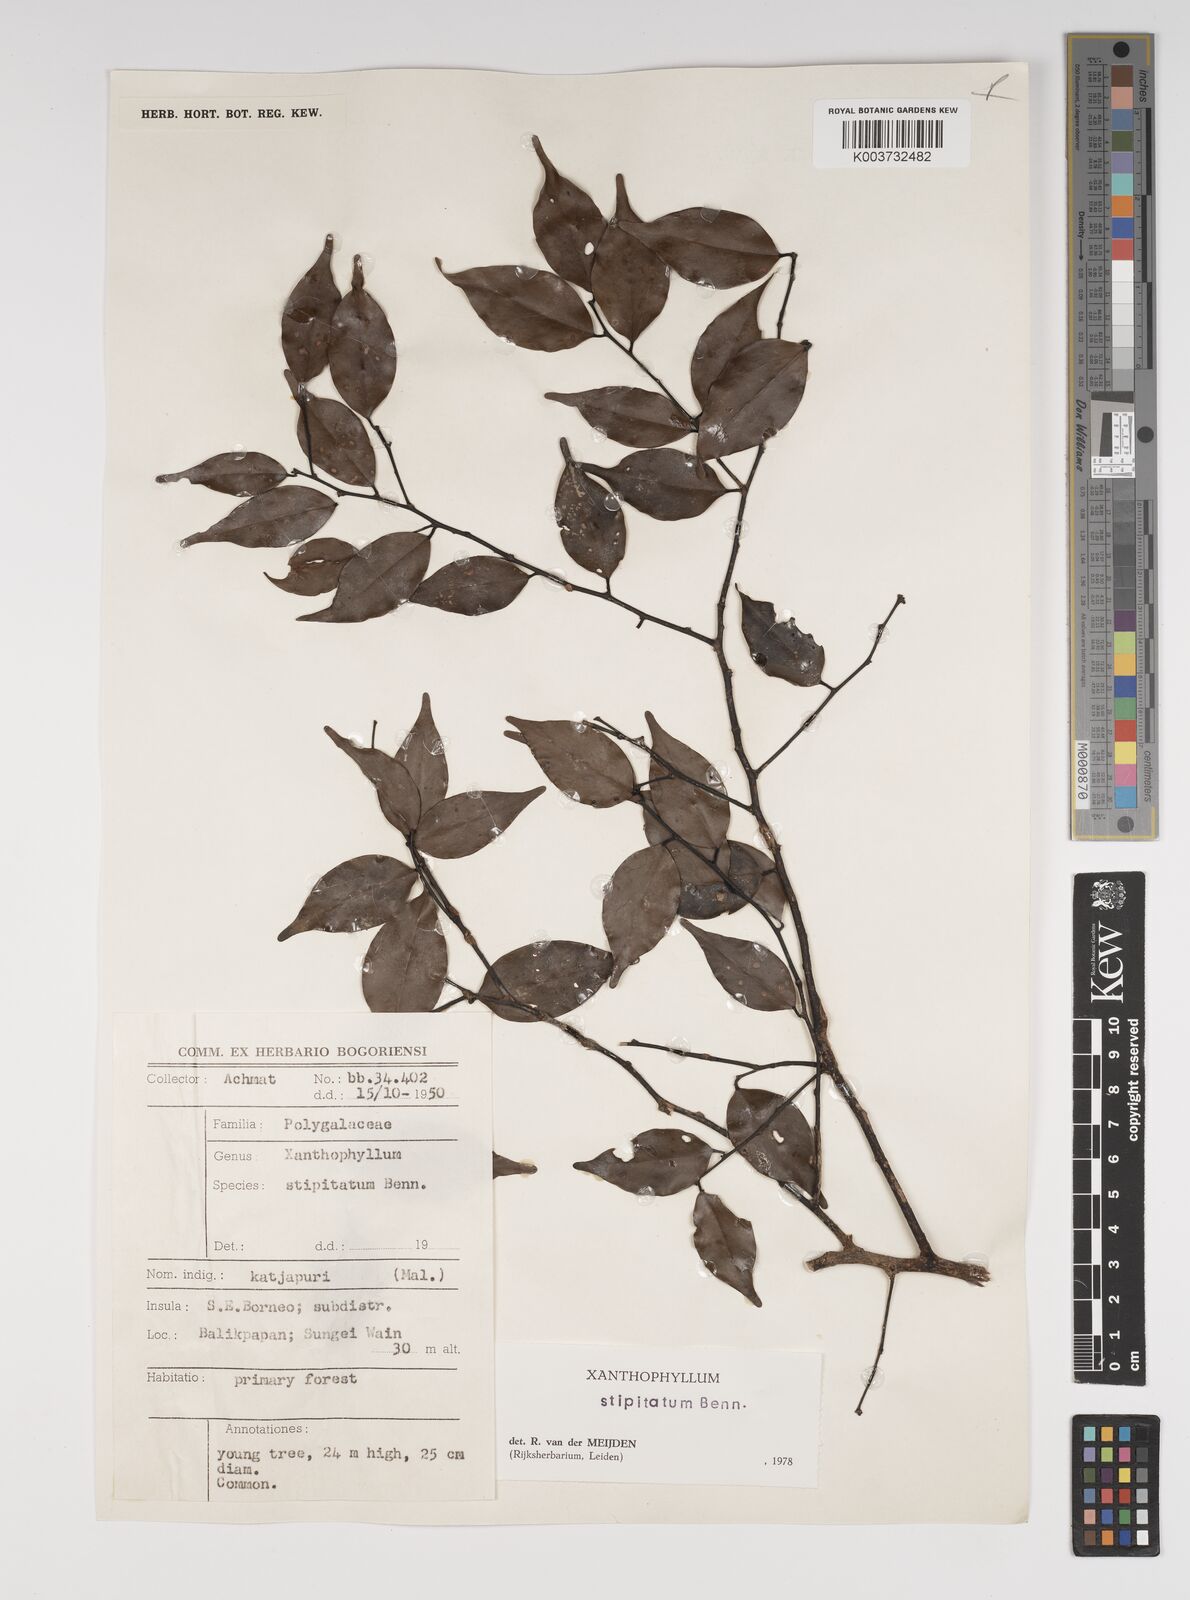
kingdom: Plantae
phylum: Tracheophyta
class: Magnoliopsida
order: Fabales
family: Polygalaceae
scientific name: Polygalaceae
